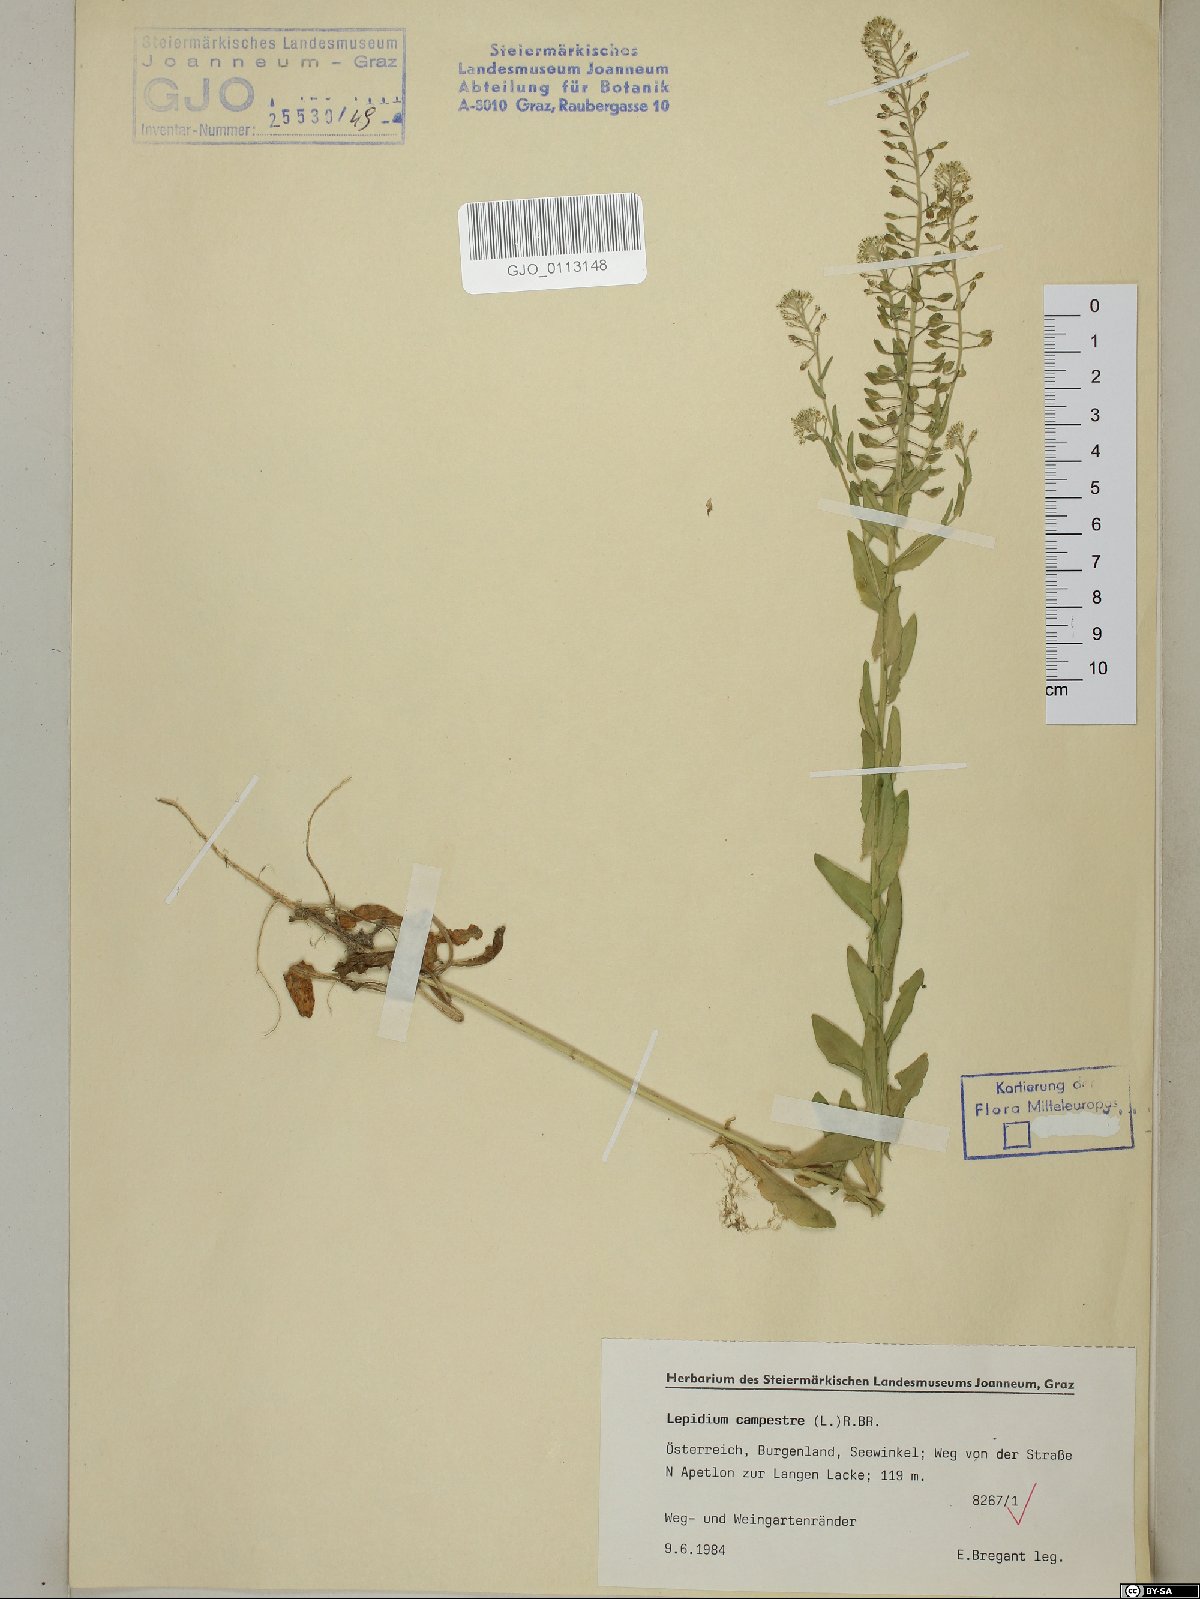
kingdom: Plantae
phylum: Tracheophyta
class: Magnoliopsida
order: Brassicales
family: Brassicaceae
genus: Lepidium
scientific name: Lepidium campestre
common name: Field pepperwort
